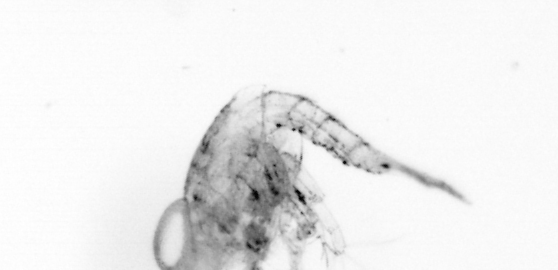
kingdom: Animalia
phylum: Arthropoda
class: Copepoda
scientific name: Copepoda
